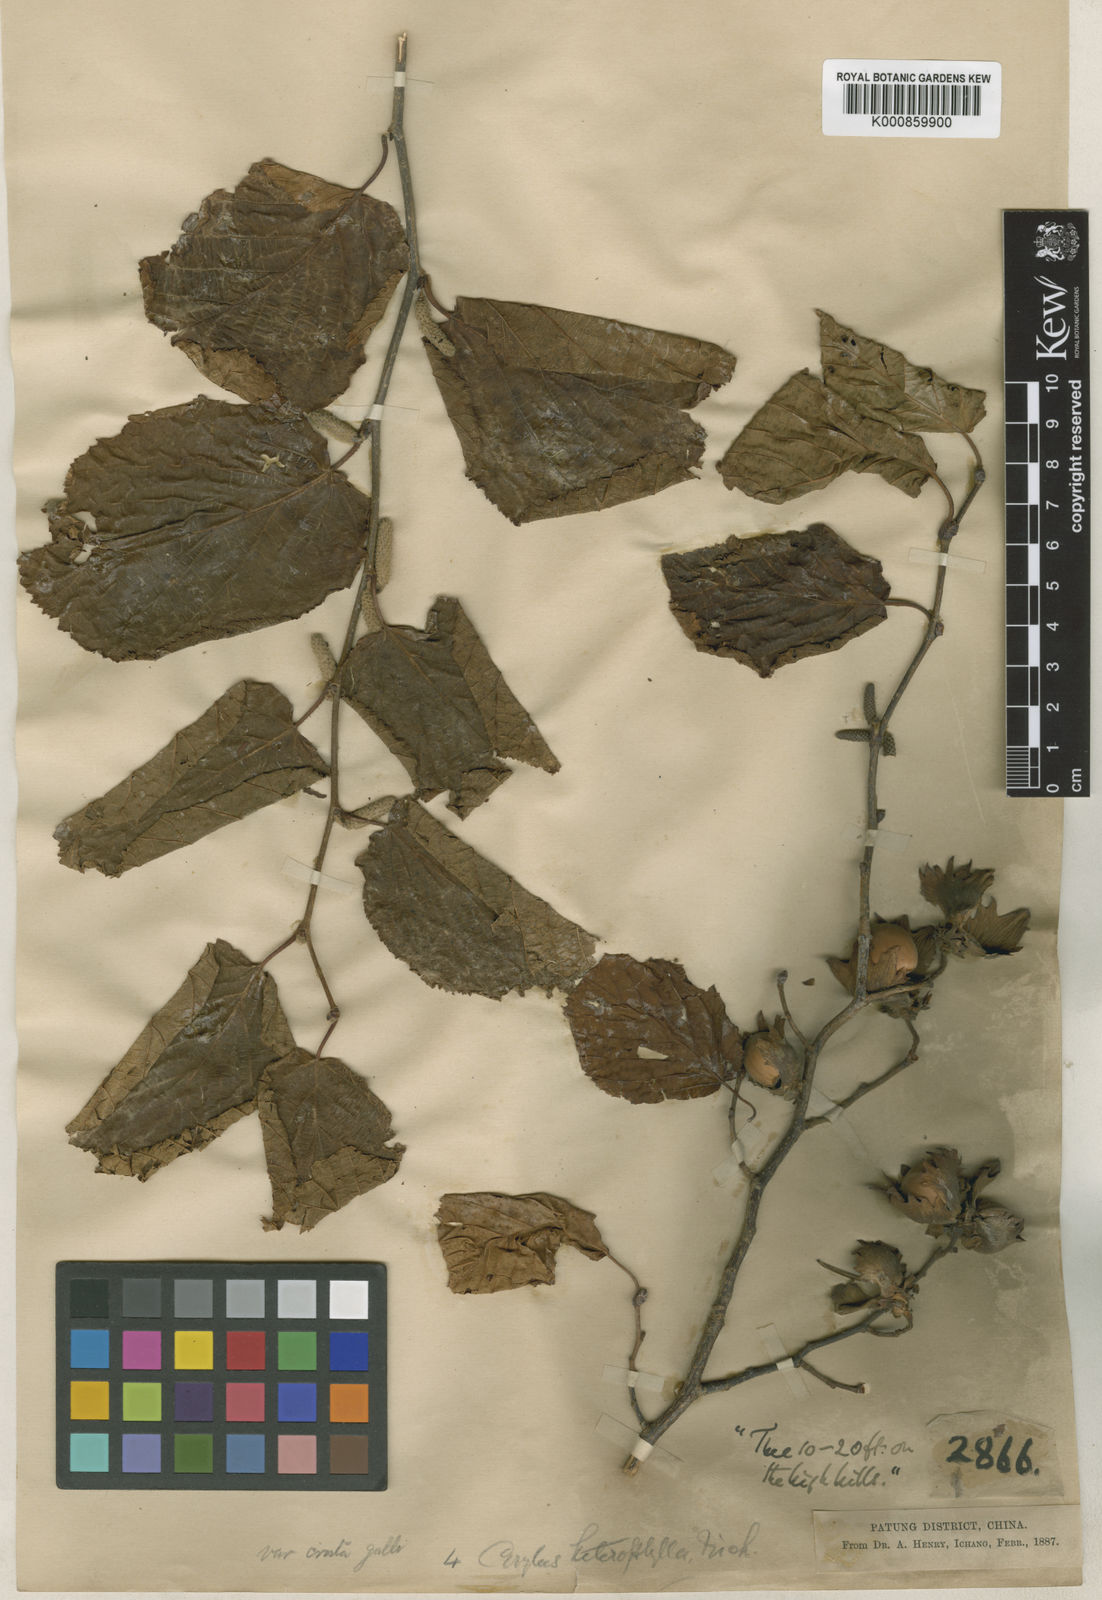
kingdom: Plantae
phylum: Tracheophyta
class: Magnoliopsida
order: Fagales
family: Betulaceae
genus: Corylus
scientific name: Corylus heterophylla
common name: Siberian hazelnut
